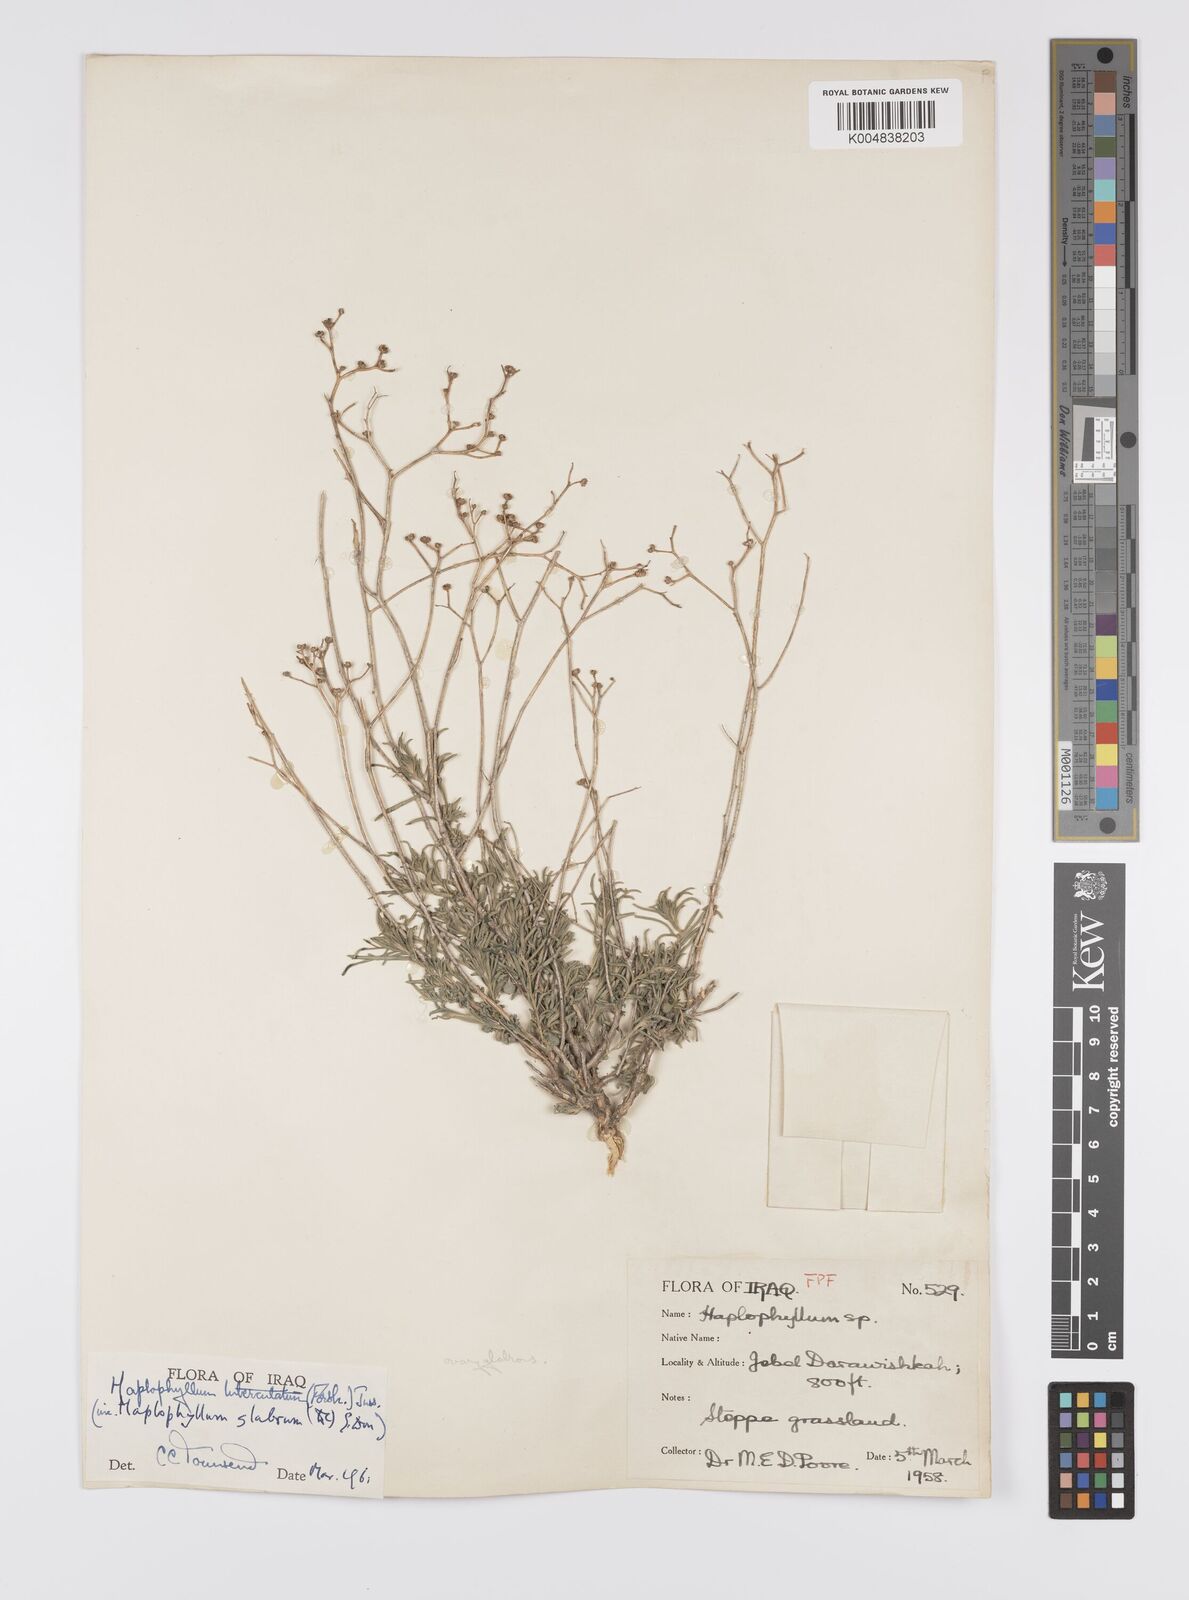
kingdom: Plantae
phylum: Tracheophyta
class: Magnoliopsida
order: Sapindales
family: Rutaceae
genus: Haplophyllum
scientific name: Haplophyllum tuberculatum
